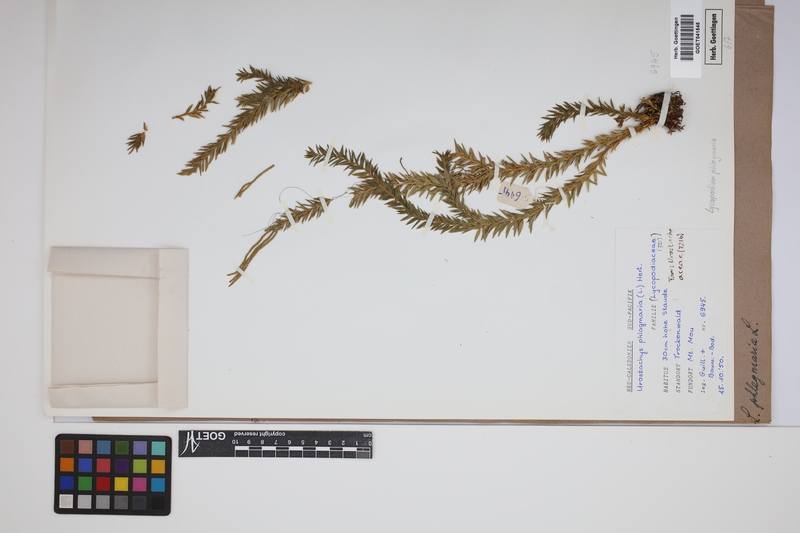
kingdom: Plantae
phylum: Tracheophyta
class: Lycopodiopsida
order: Lycopodiales
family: Lycopodiaceae
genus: Phlegmariurus
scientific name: Phlegmariurus phlegmaria
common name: Coarse tassel-fern
